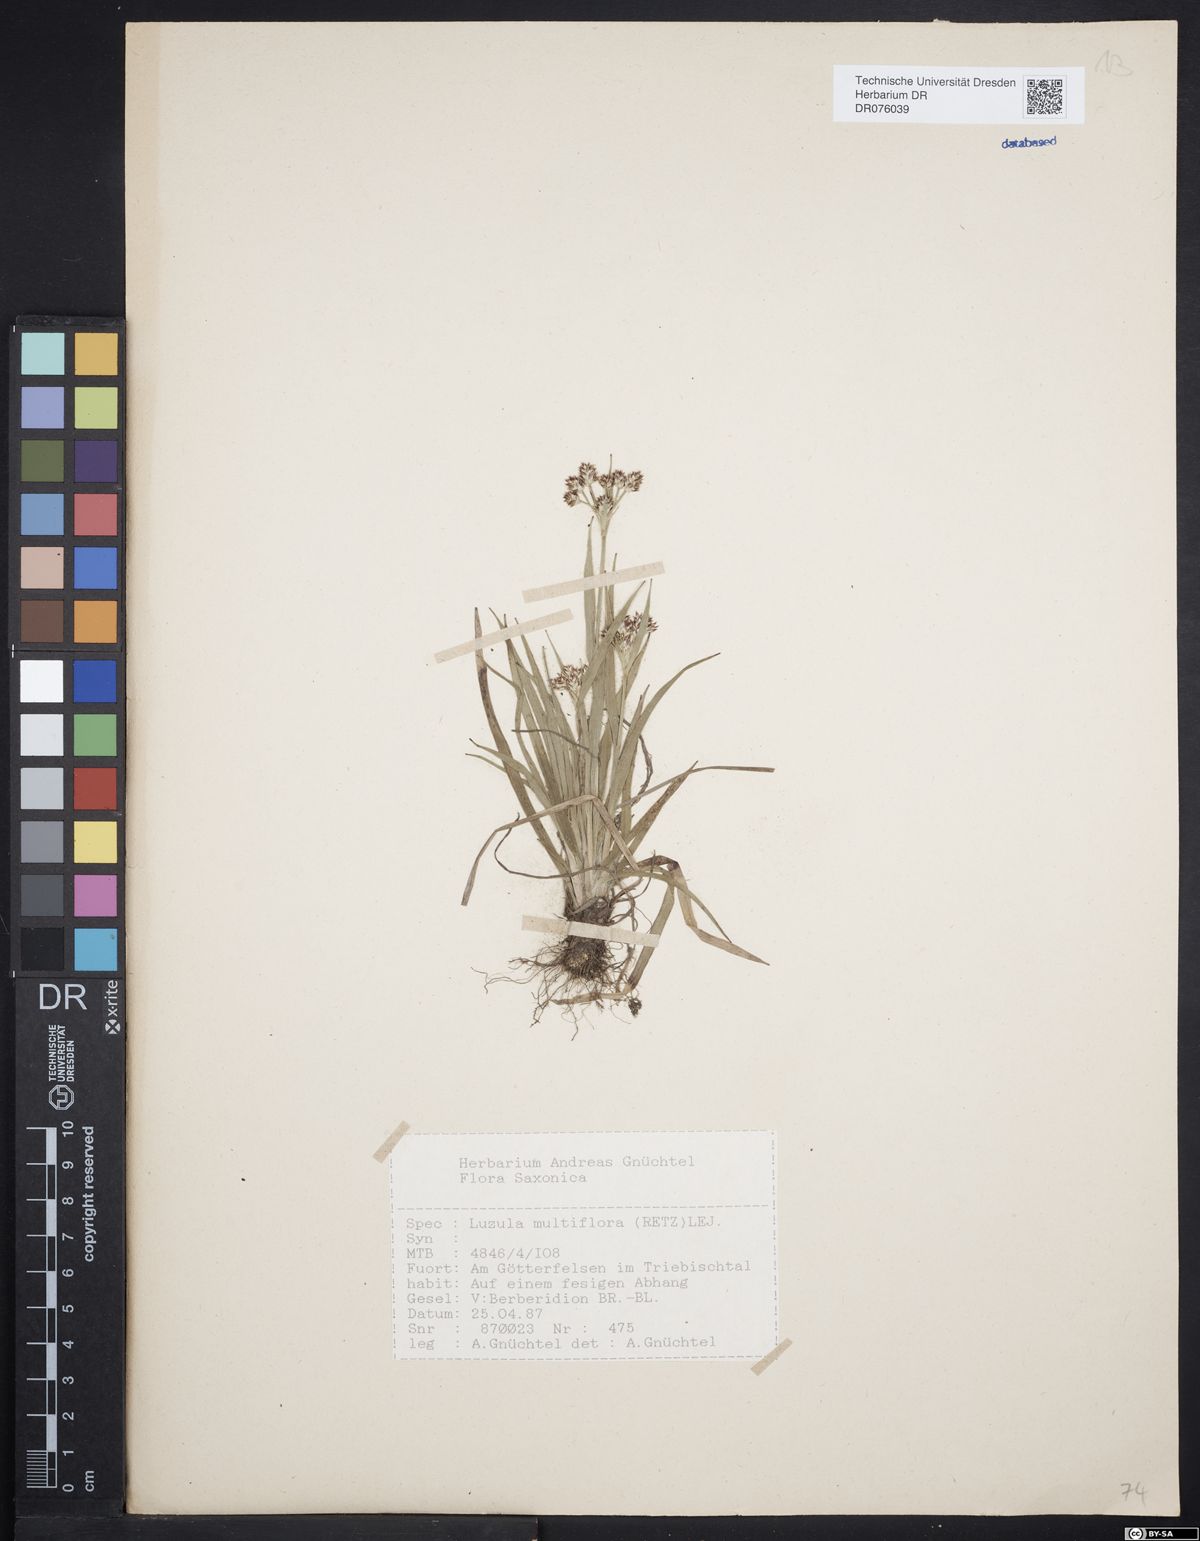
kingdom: Plantae
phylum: Tracheophyta
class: Liliopsida
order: Poales
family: Juncaceae
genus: Luzula
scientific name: Luzula multiflora
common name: Heath wood-rush
